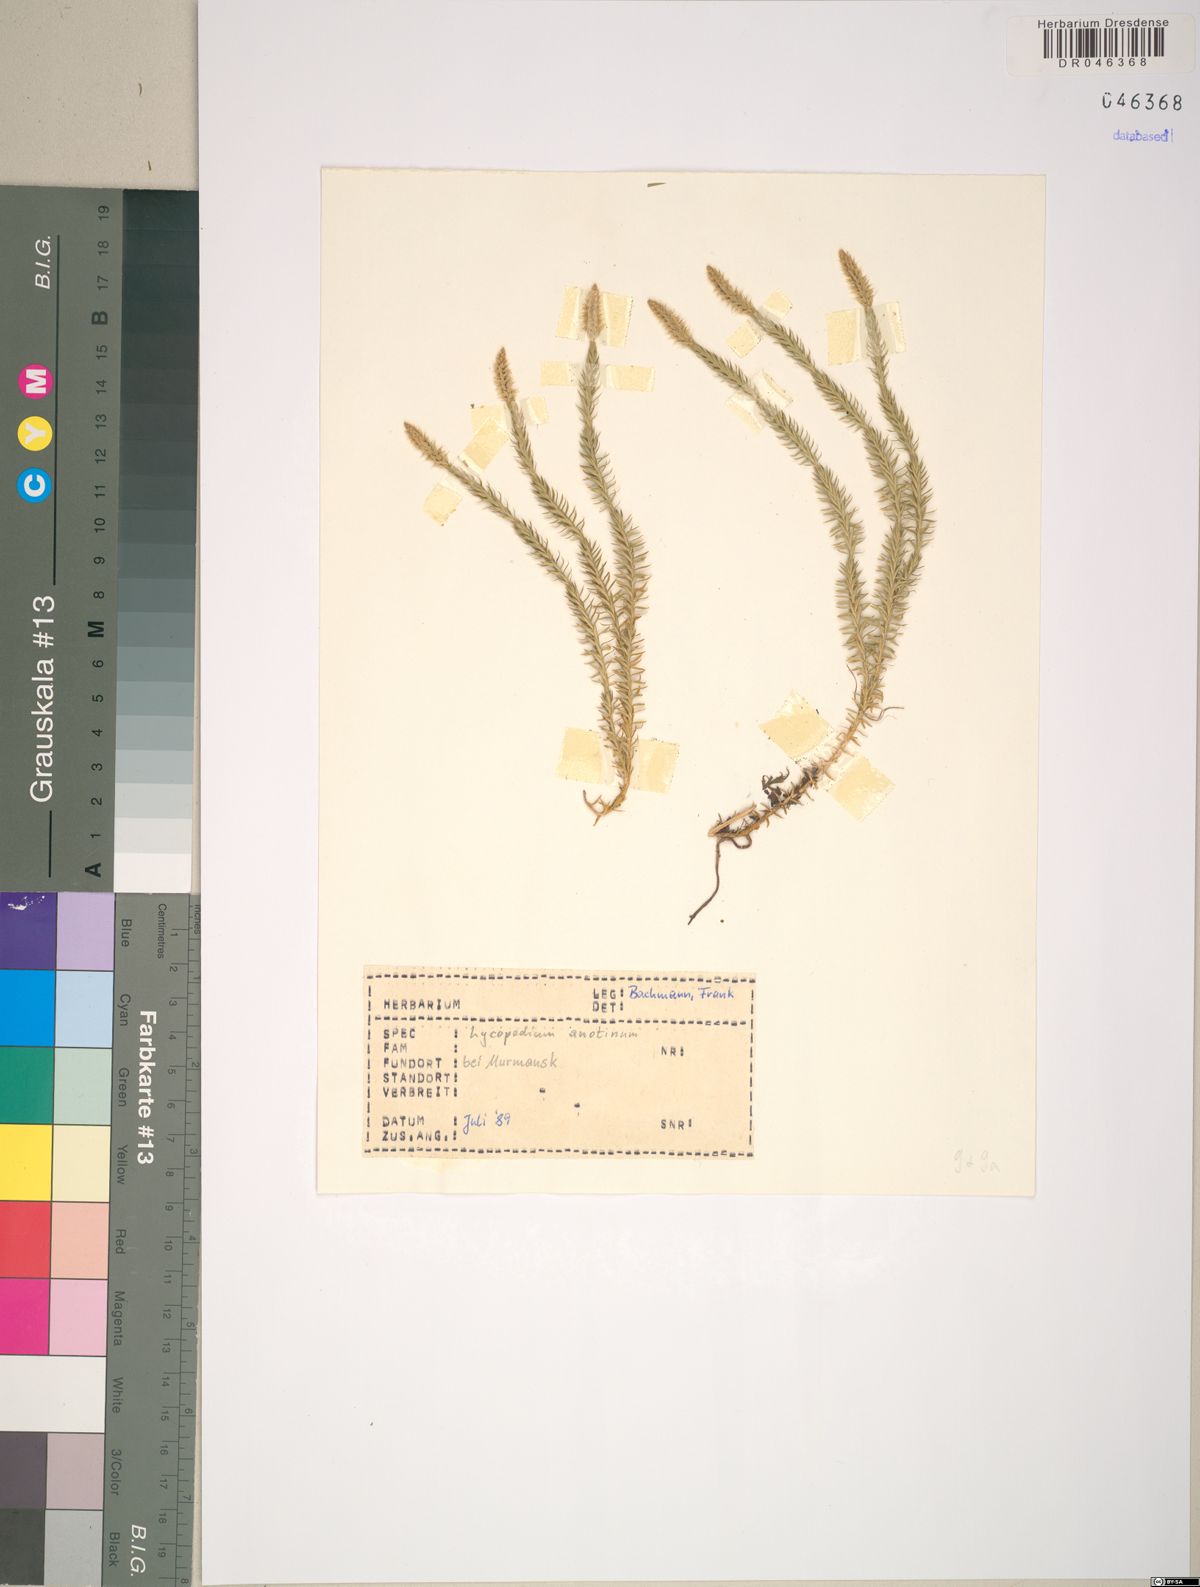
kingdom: Plantae
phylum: Tracheophyta
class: Lycopodiopsida
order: Lycopodiales
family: Lycopodiaceae
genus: Spinulum
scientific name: Spinulum annotinum
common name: Interrupted club-moss
